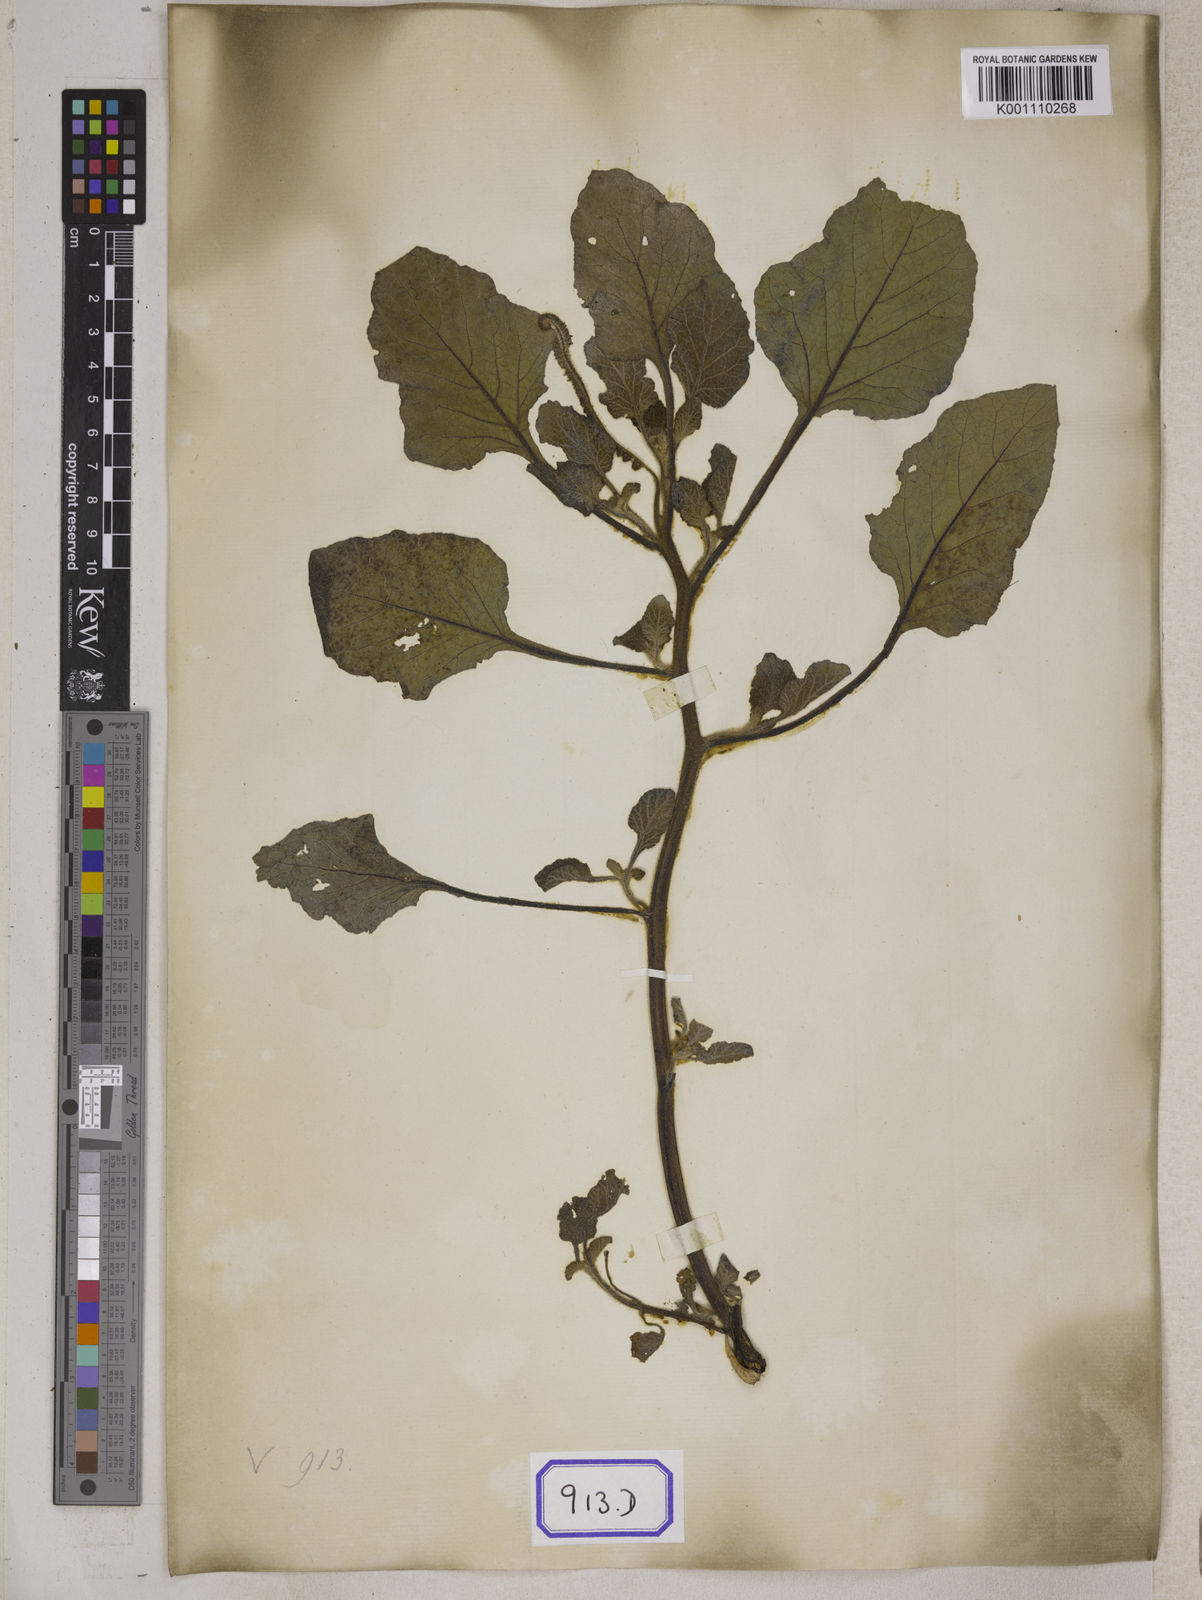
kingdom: Plantae
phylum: Tracheophyta
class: Magnoliopsida
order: Boraginales
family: Heliotropiaceae
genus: Heliotropium
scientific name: Heliotropium indicum
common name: Indian heliotrope
